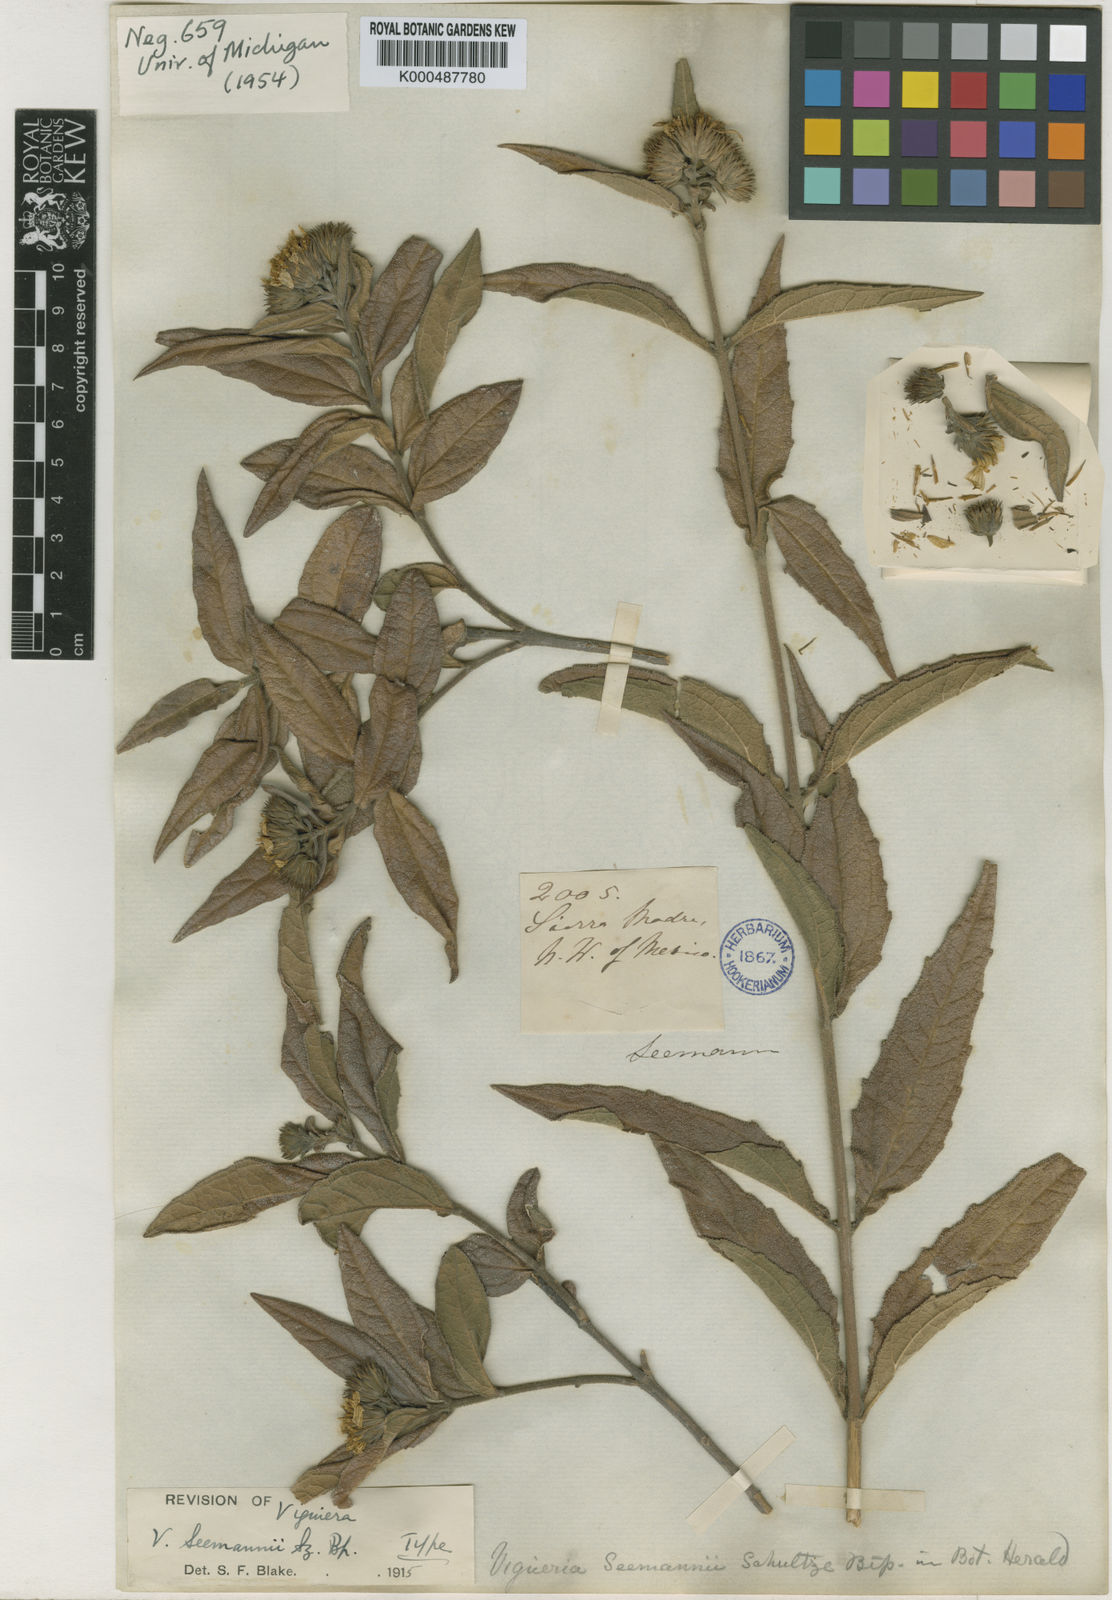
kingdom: Plantae
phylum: Tracheophyta
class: Magnoliopsida
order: Asterales
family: Asteraceae
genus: Aldama
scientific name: Aldama seemannii
